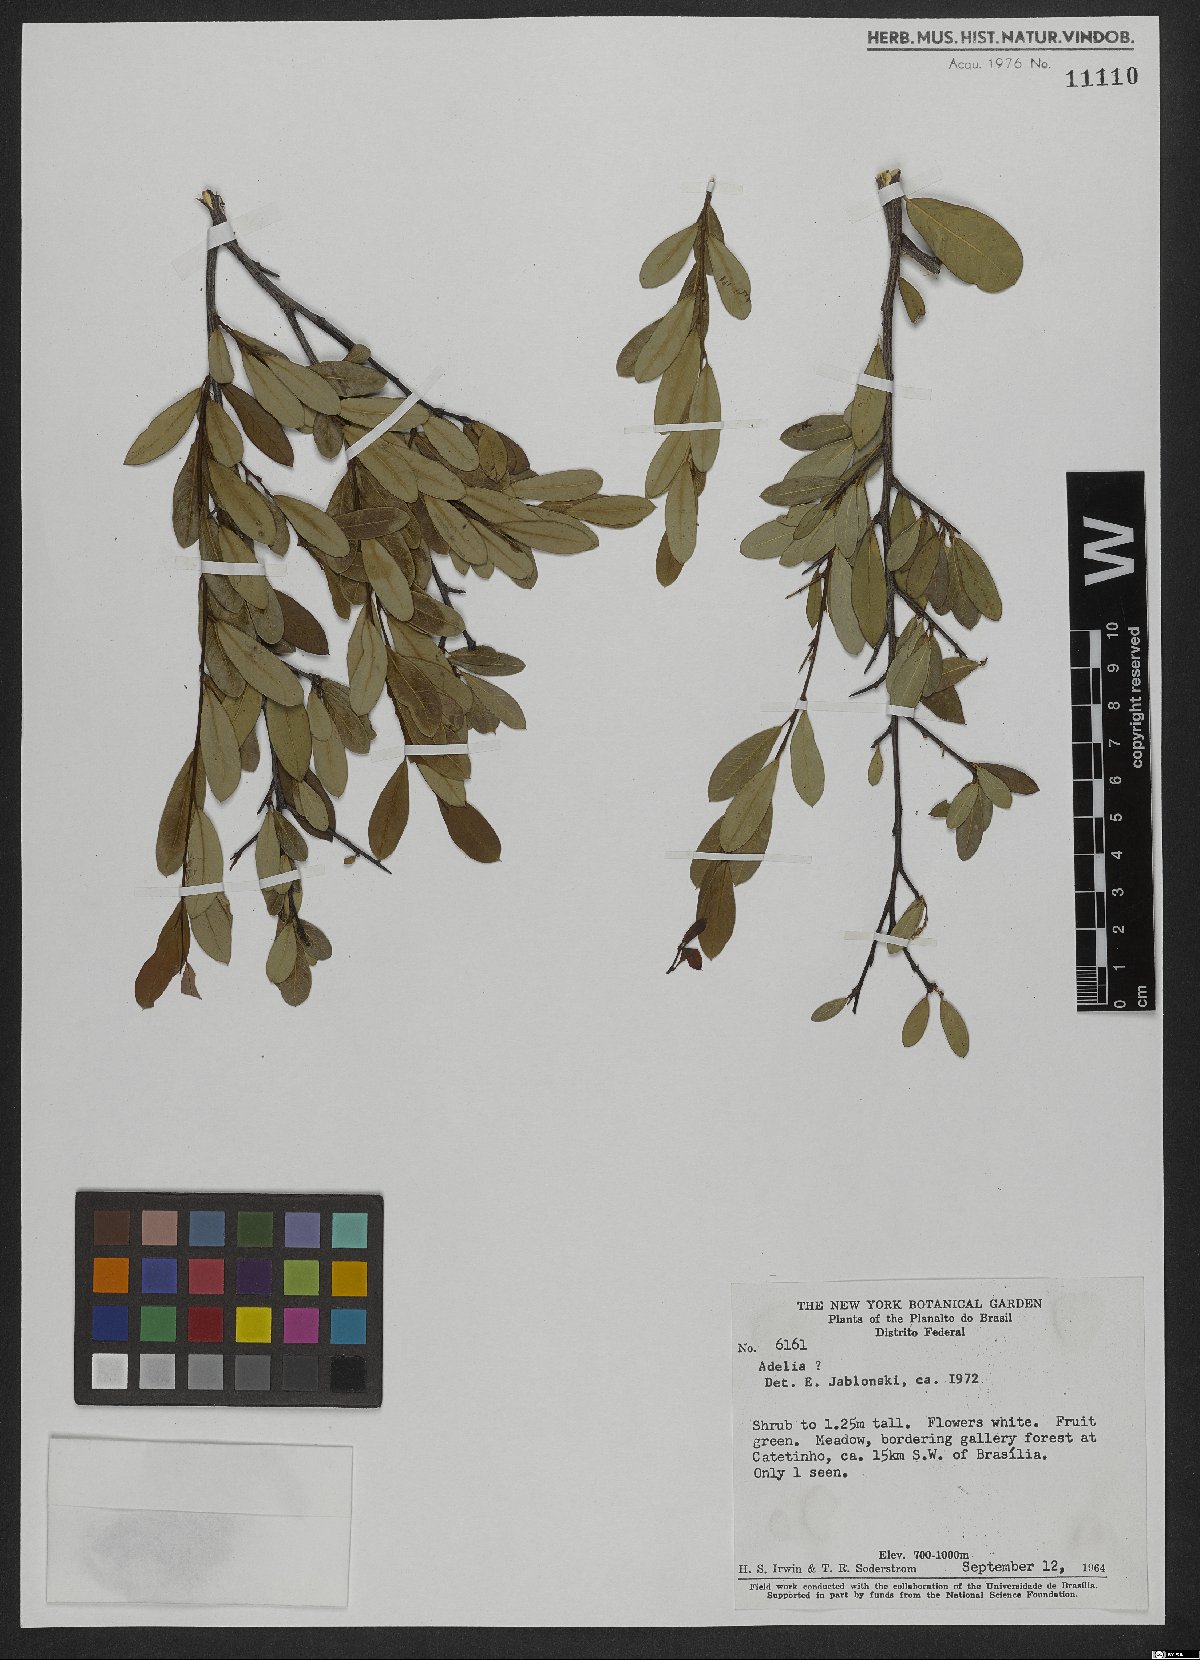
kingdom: Plantae
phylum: Tracheophyta
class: Magnoliopsida
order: Malpighiales
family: Euphorbiaceae
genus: Adelia
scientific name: Adelia
